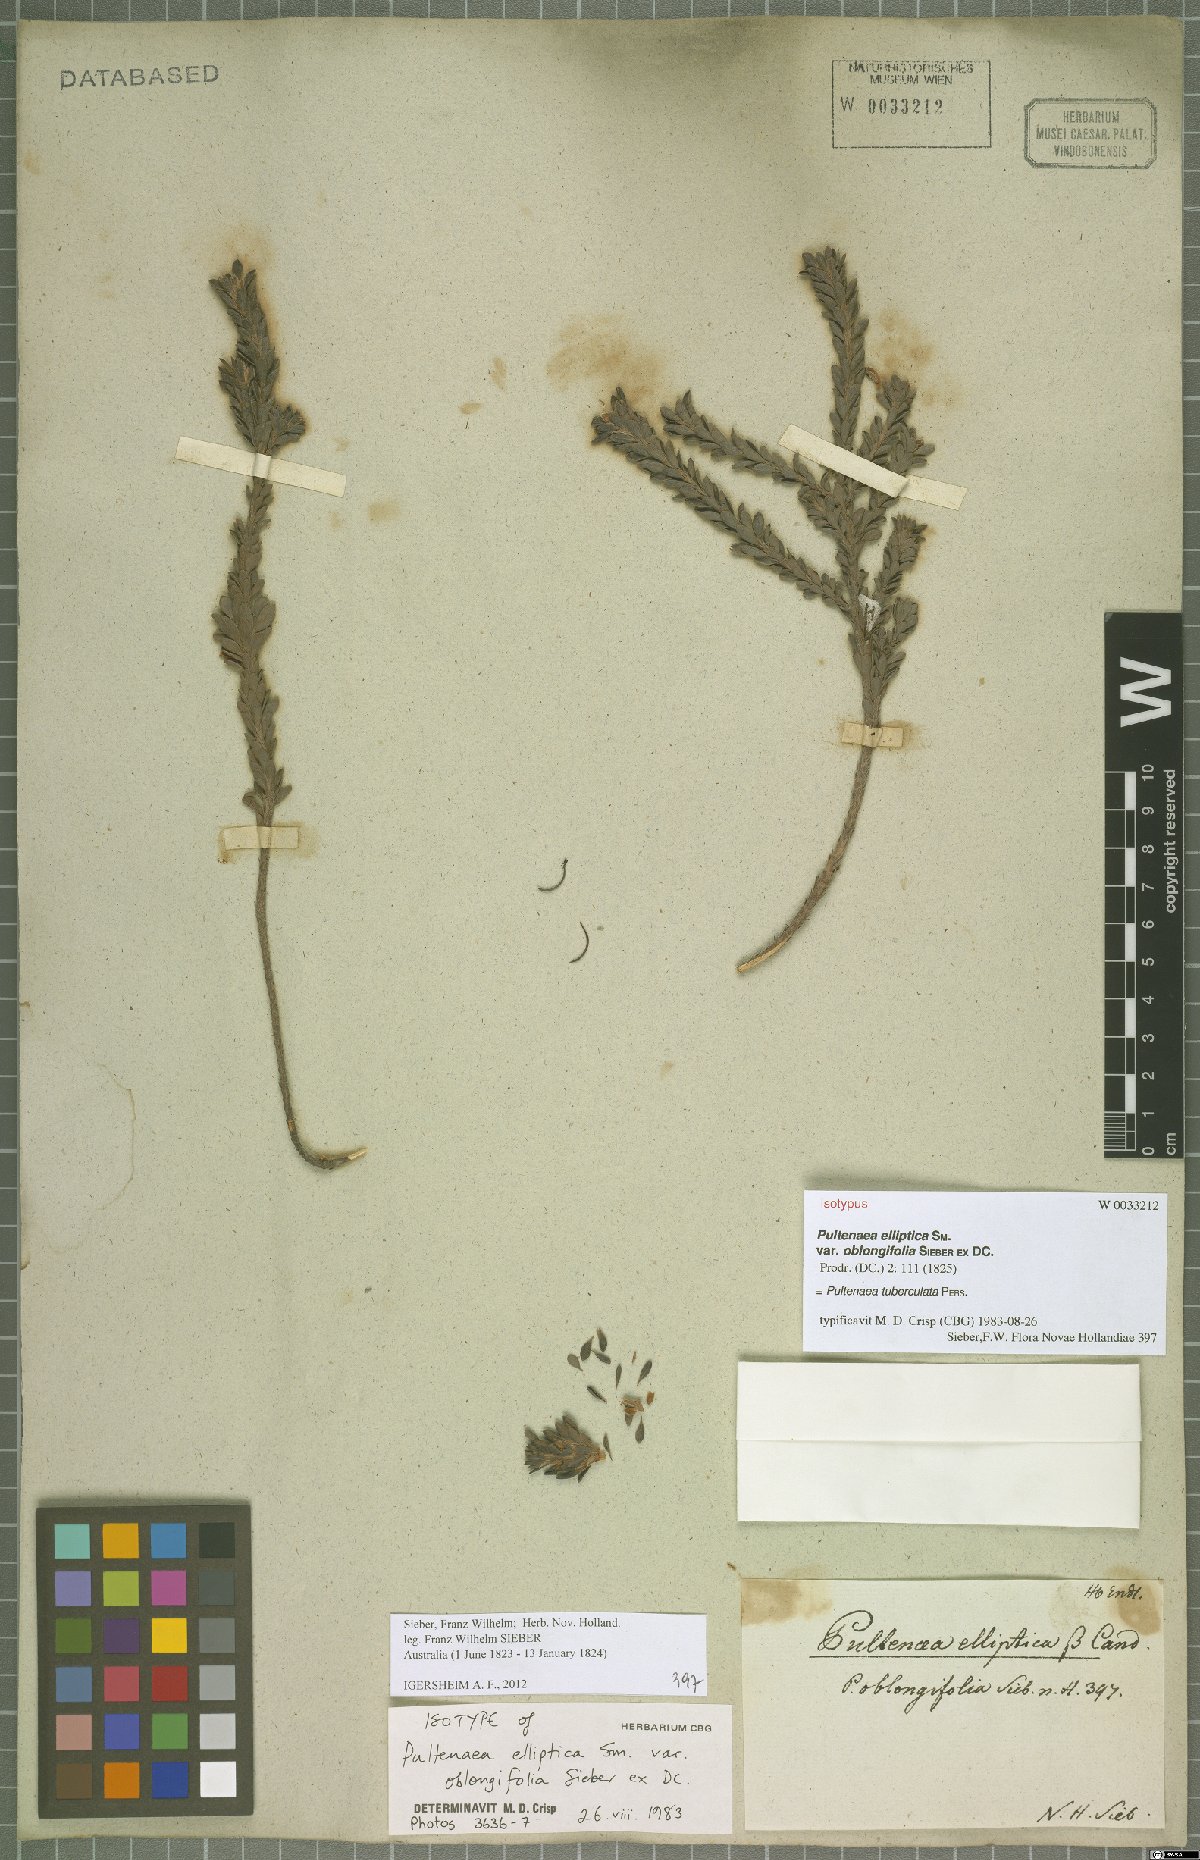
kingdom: Plantae
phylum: Tracheophyta
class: Magnoliopsida
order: Fabales
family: Fabaceae
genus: Pultenaea
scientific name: Pultenaea tuberculata
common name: Wreath bush-pea
